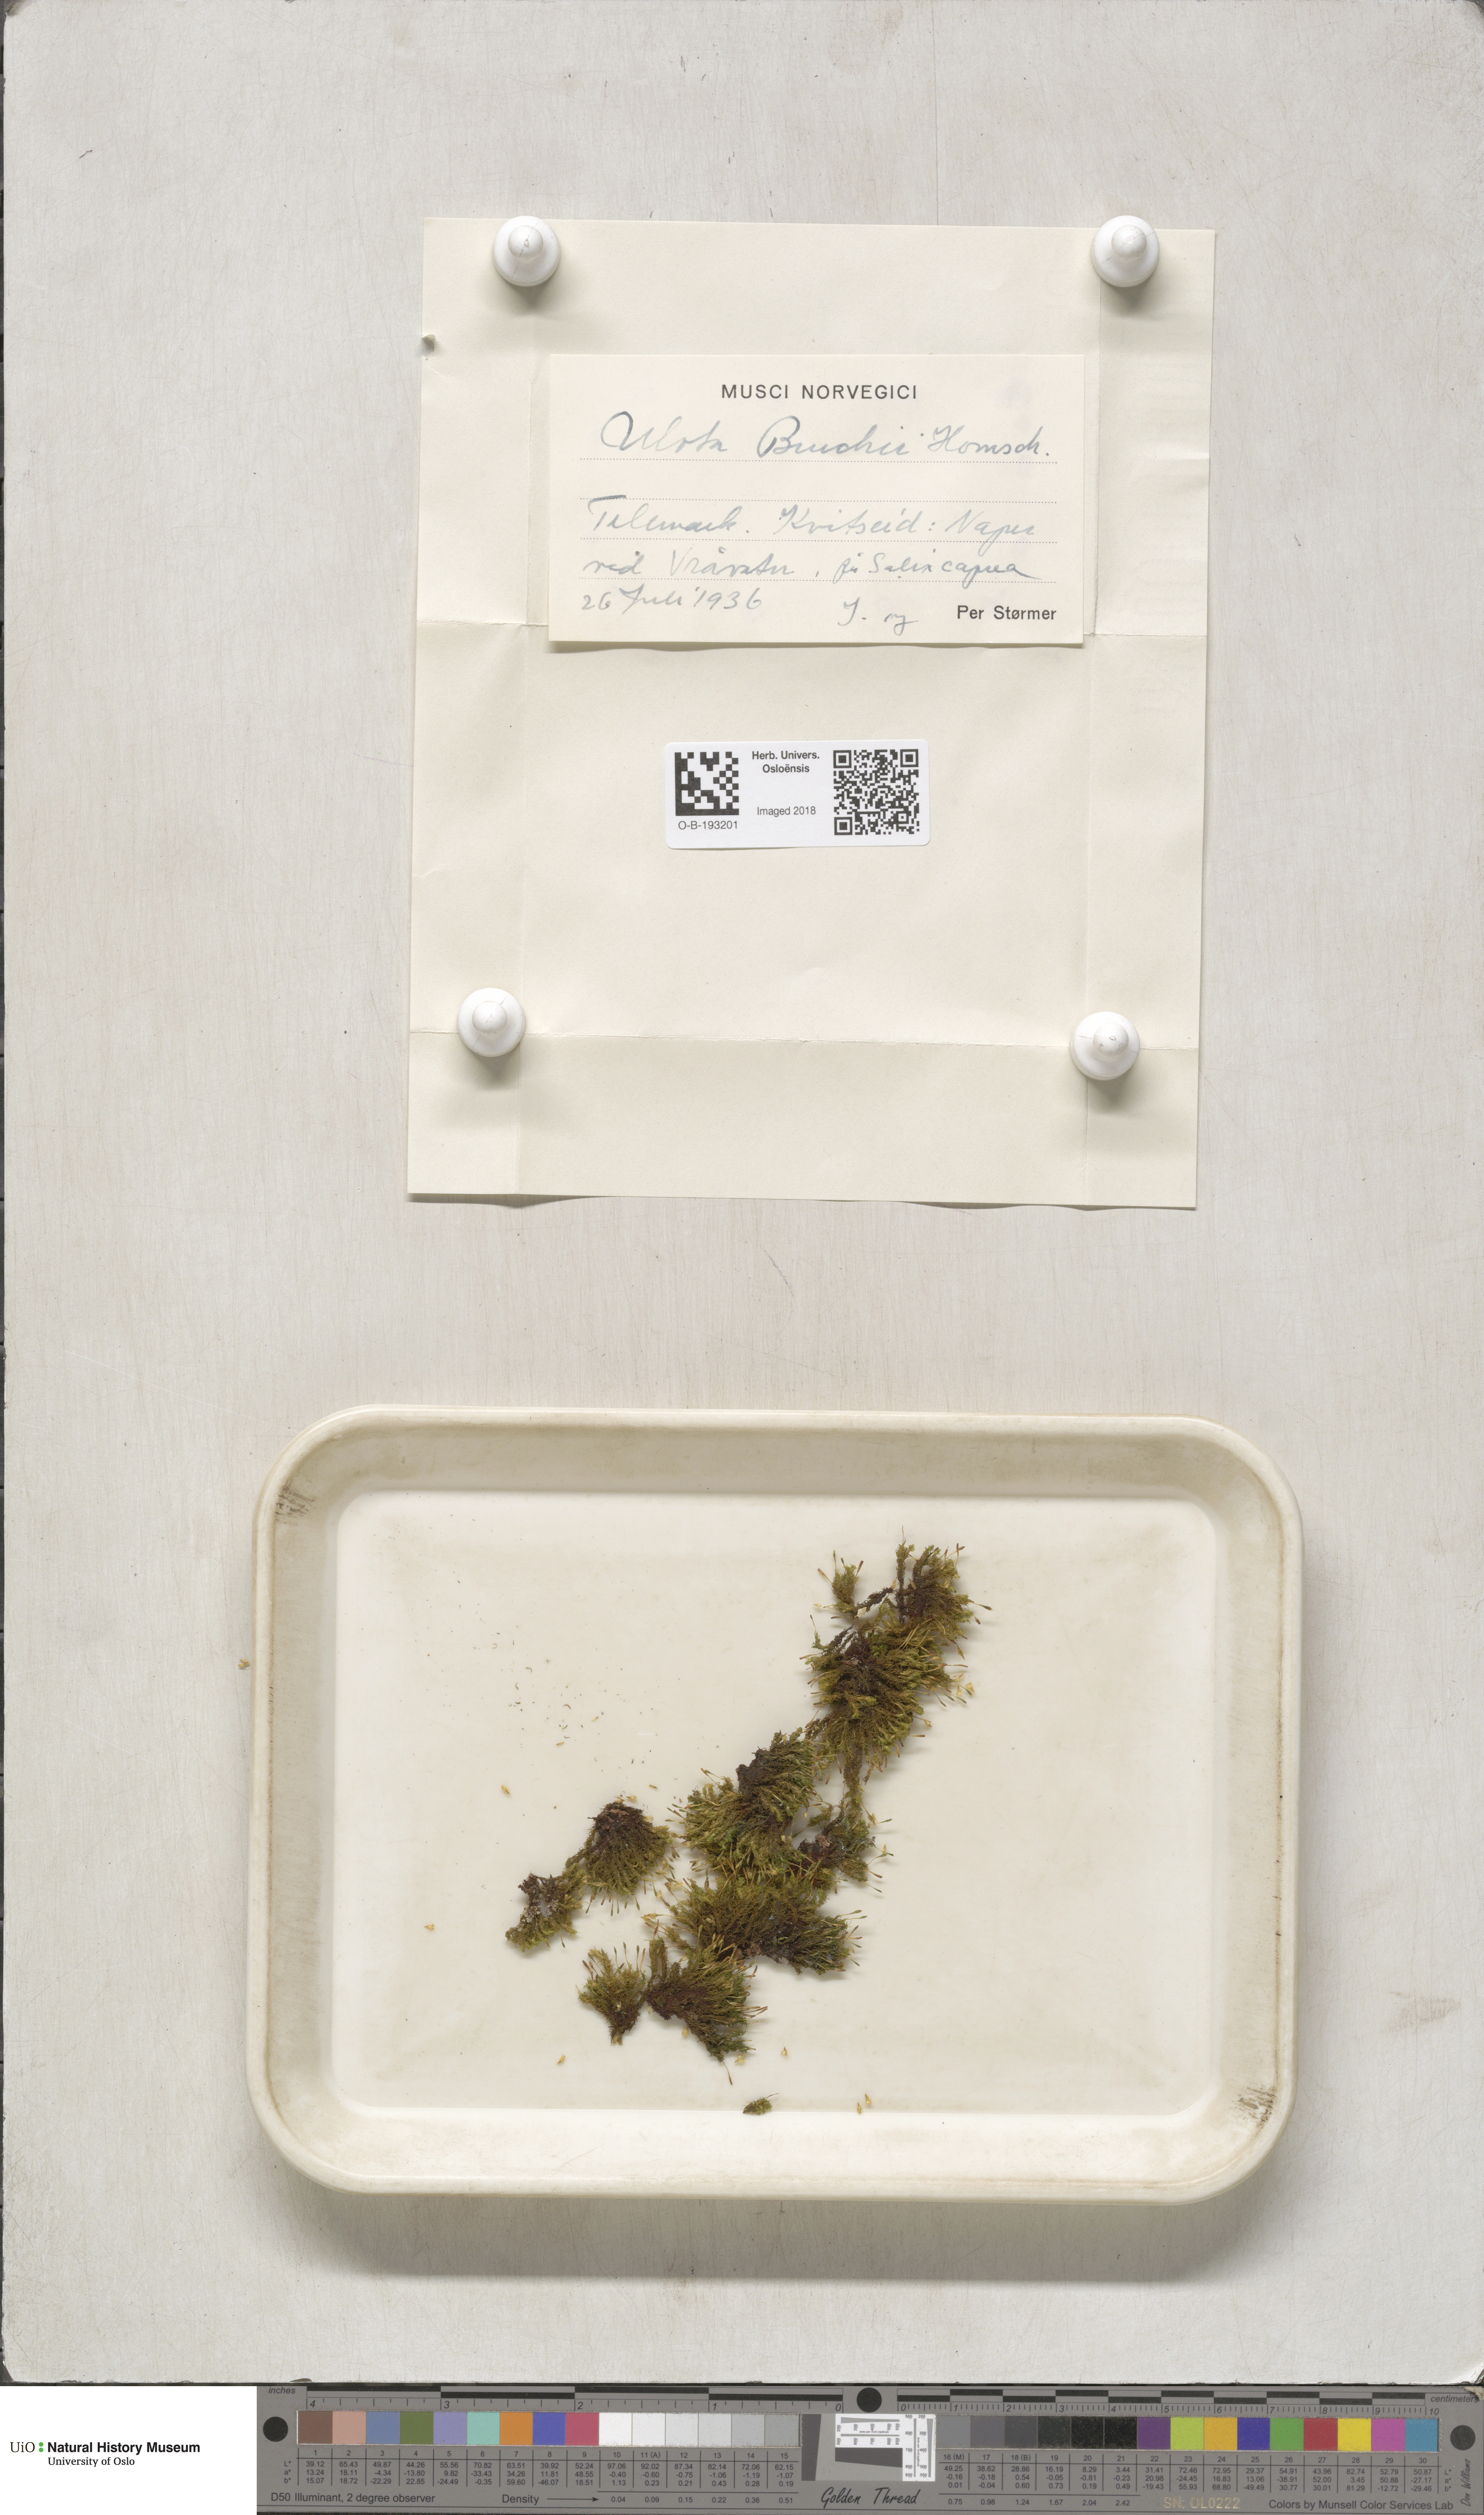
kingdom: Plantae
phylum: Bryophyta
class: Bryopsida
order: Orthotrichales
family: Orthotrichaceae
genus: Ulota
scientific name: Ulota bruchii
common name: Bruch's pincushion
